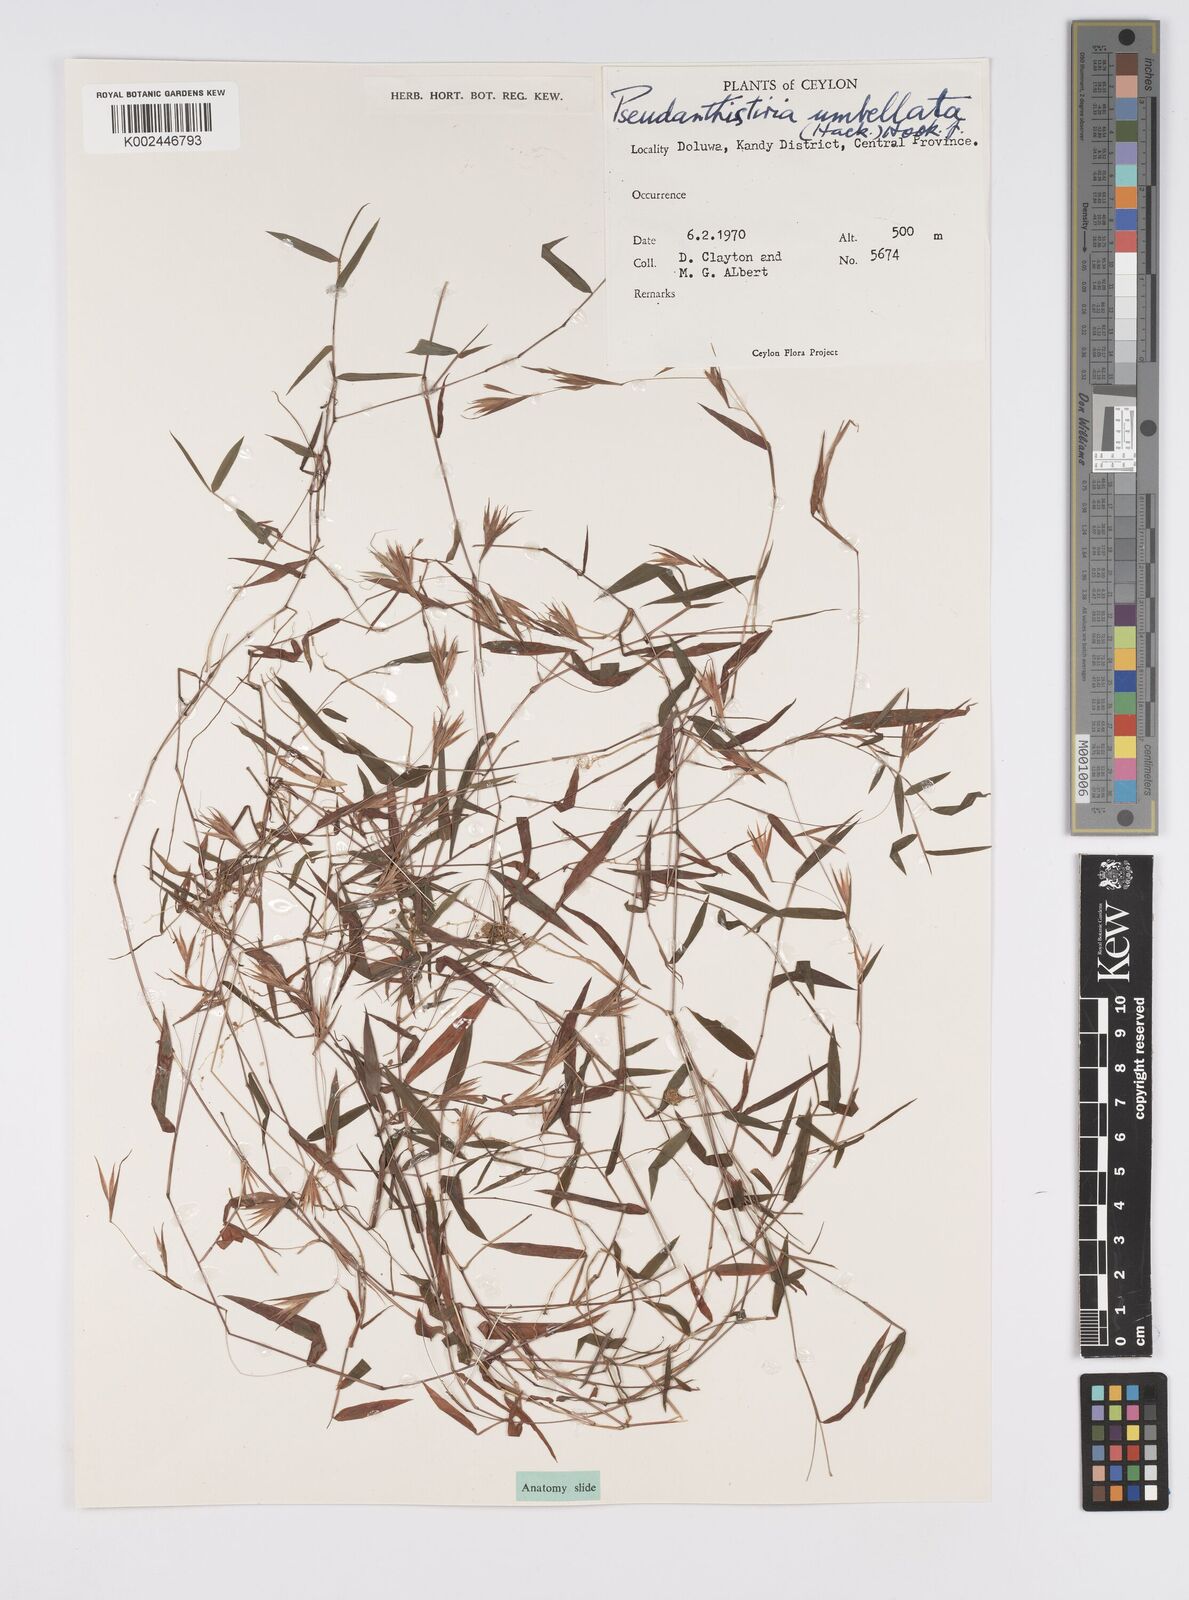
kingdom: Plantae
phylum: Tracheophyta
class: Liliopsida
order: Poales
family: Poaceae
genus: Pseudanthistiria
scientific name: Pseudanthistiria umbellata
